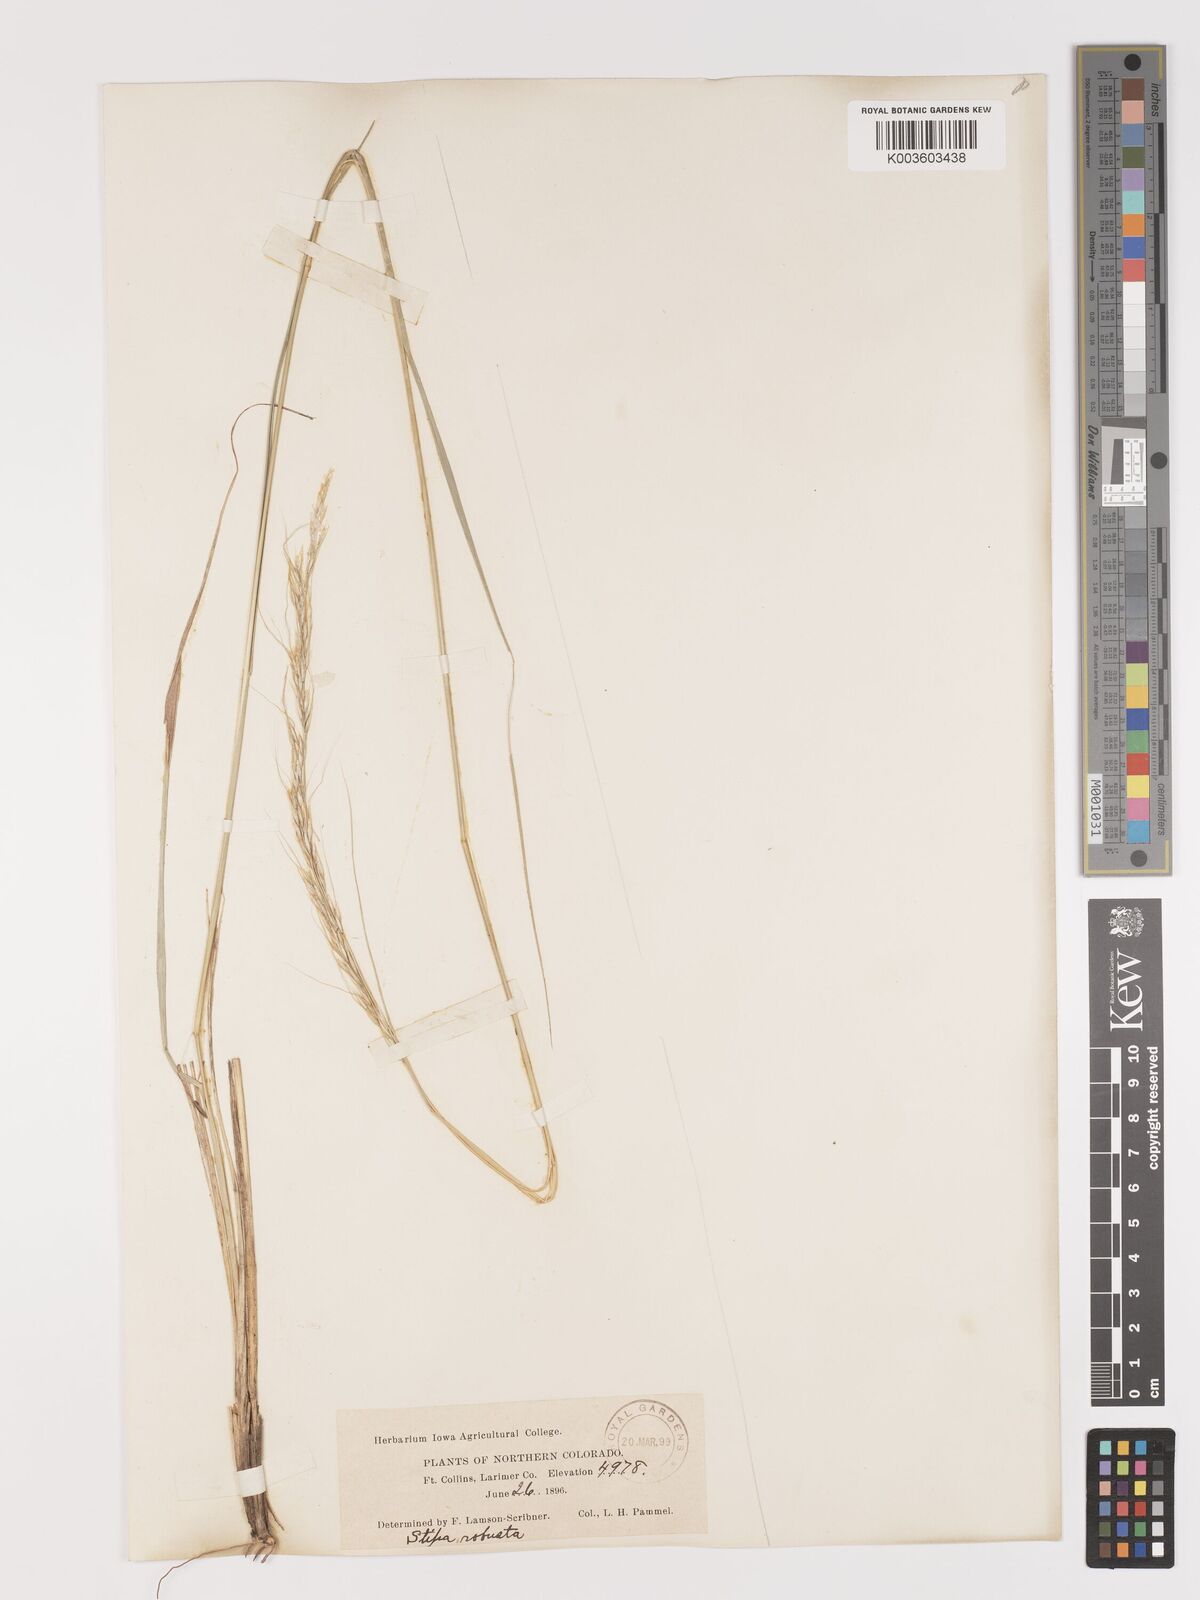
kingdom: Plantae
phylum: Tracheophyta
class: Liliopsida
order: Poales
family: Poaceae
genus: Eriocoma
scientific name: Eriocoma robusta
